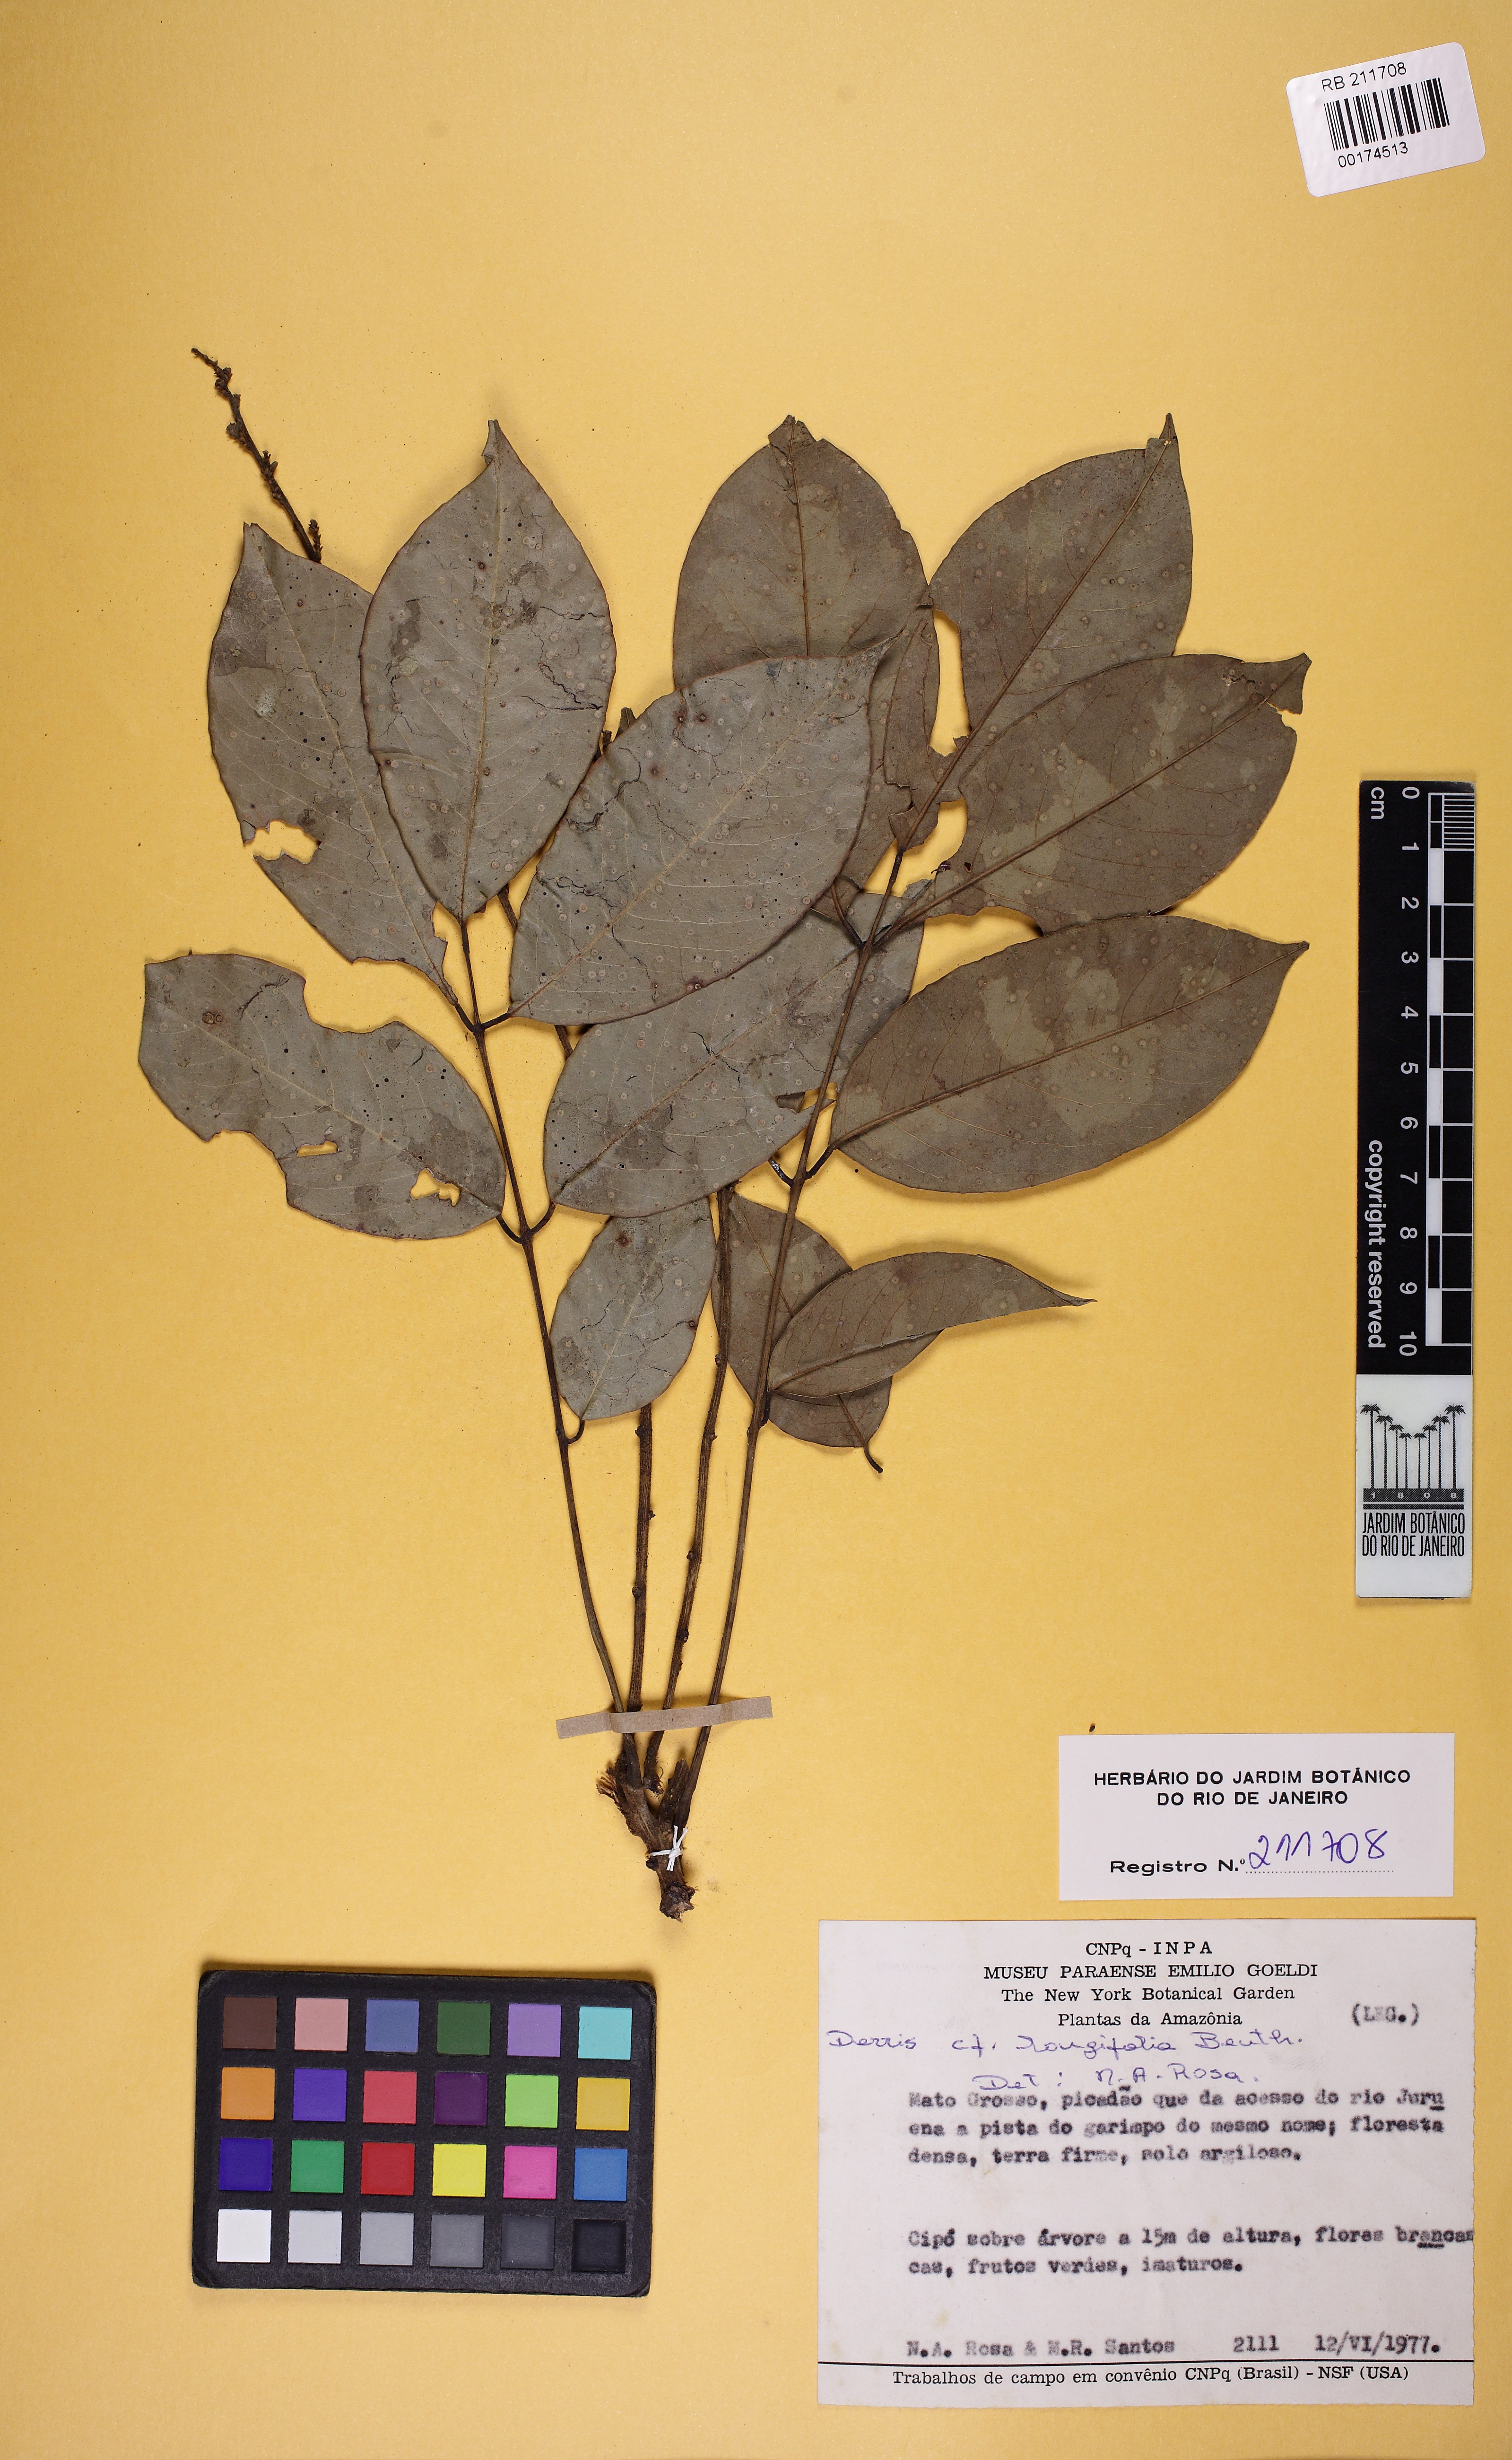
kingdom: Plantae
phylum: Tracheophyta
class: Magnoliopsida
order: Fabales
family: Fabaceae
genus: Deguelia
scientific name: Deguelia scandens
